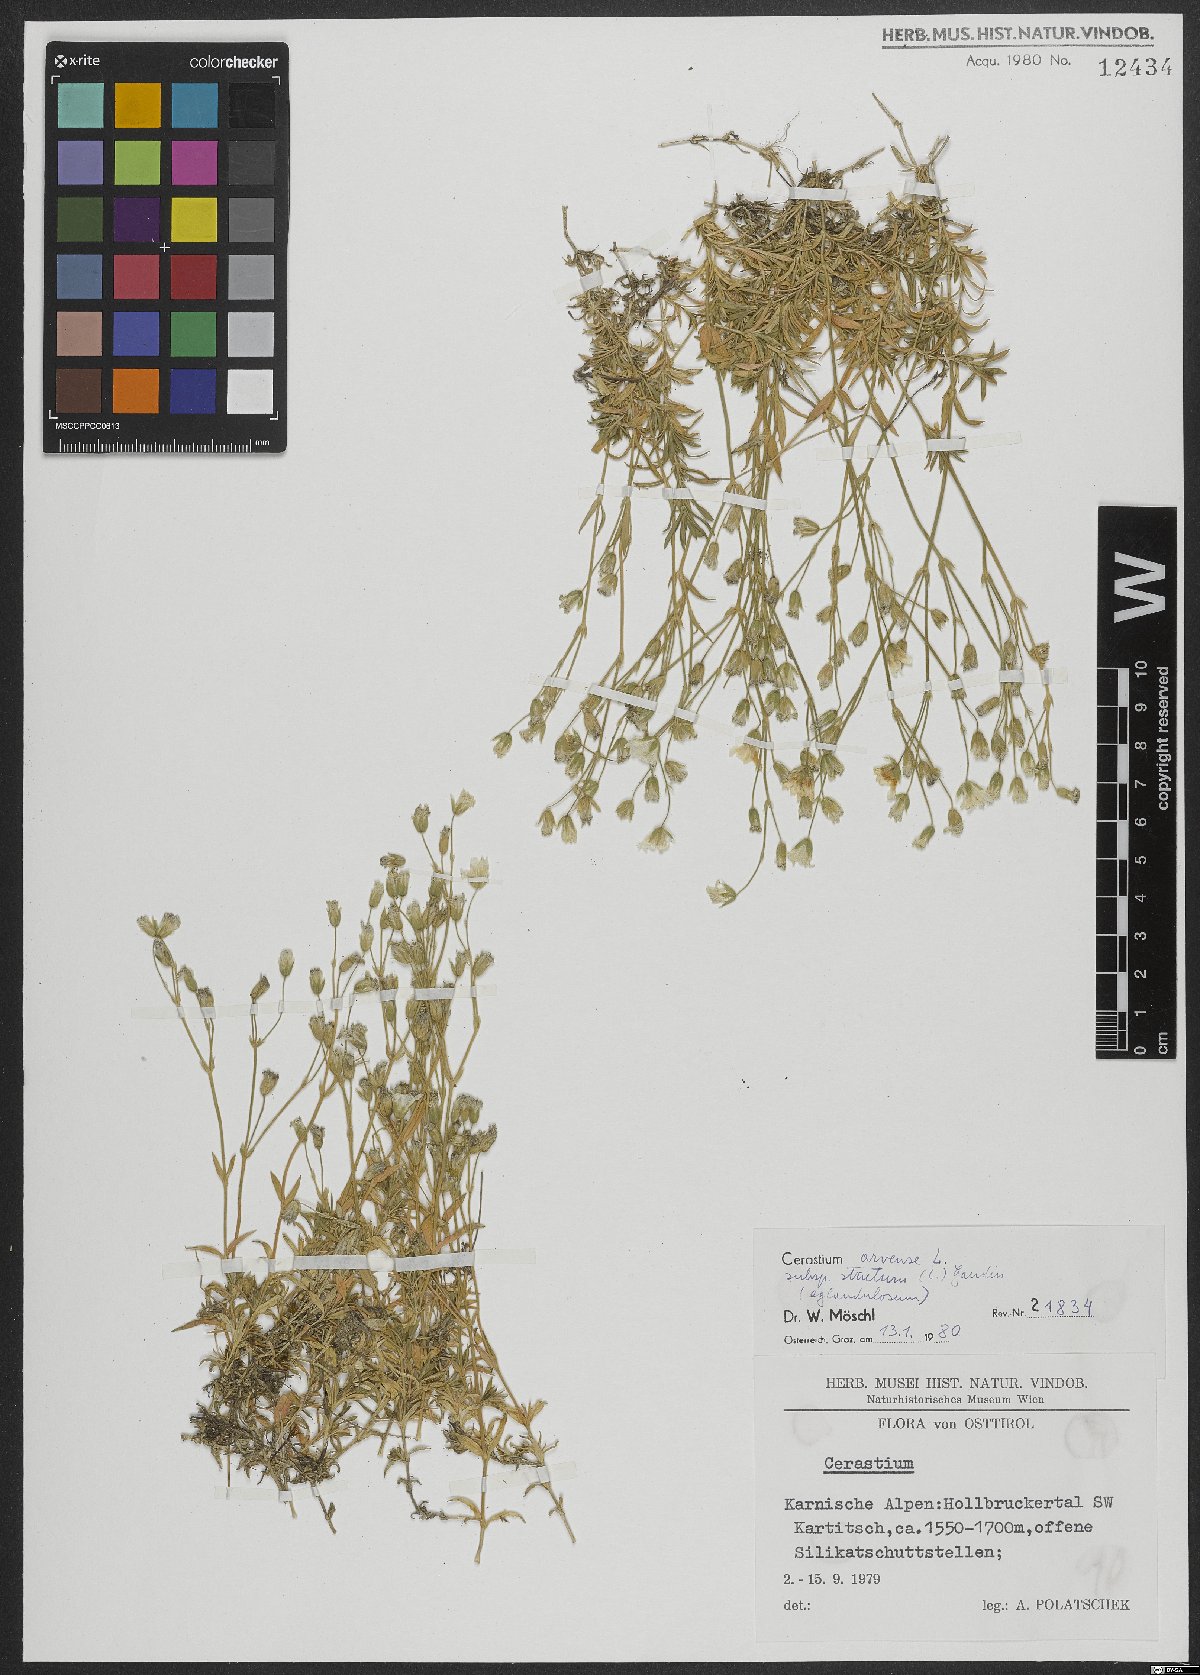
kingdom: Plantae
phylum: Tracheophyta
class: Magnoliopsida
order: Caryophyllales
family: Caryophyllaceae
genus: Cerastium
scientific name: Cerastium elongatum
